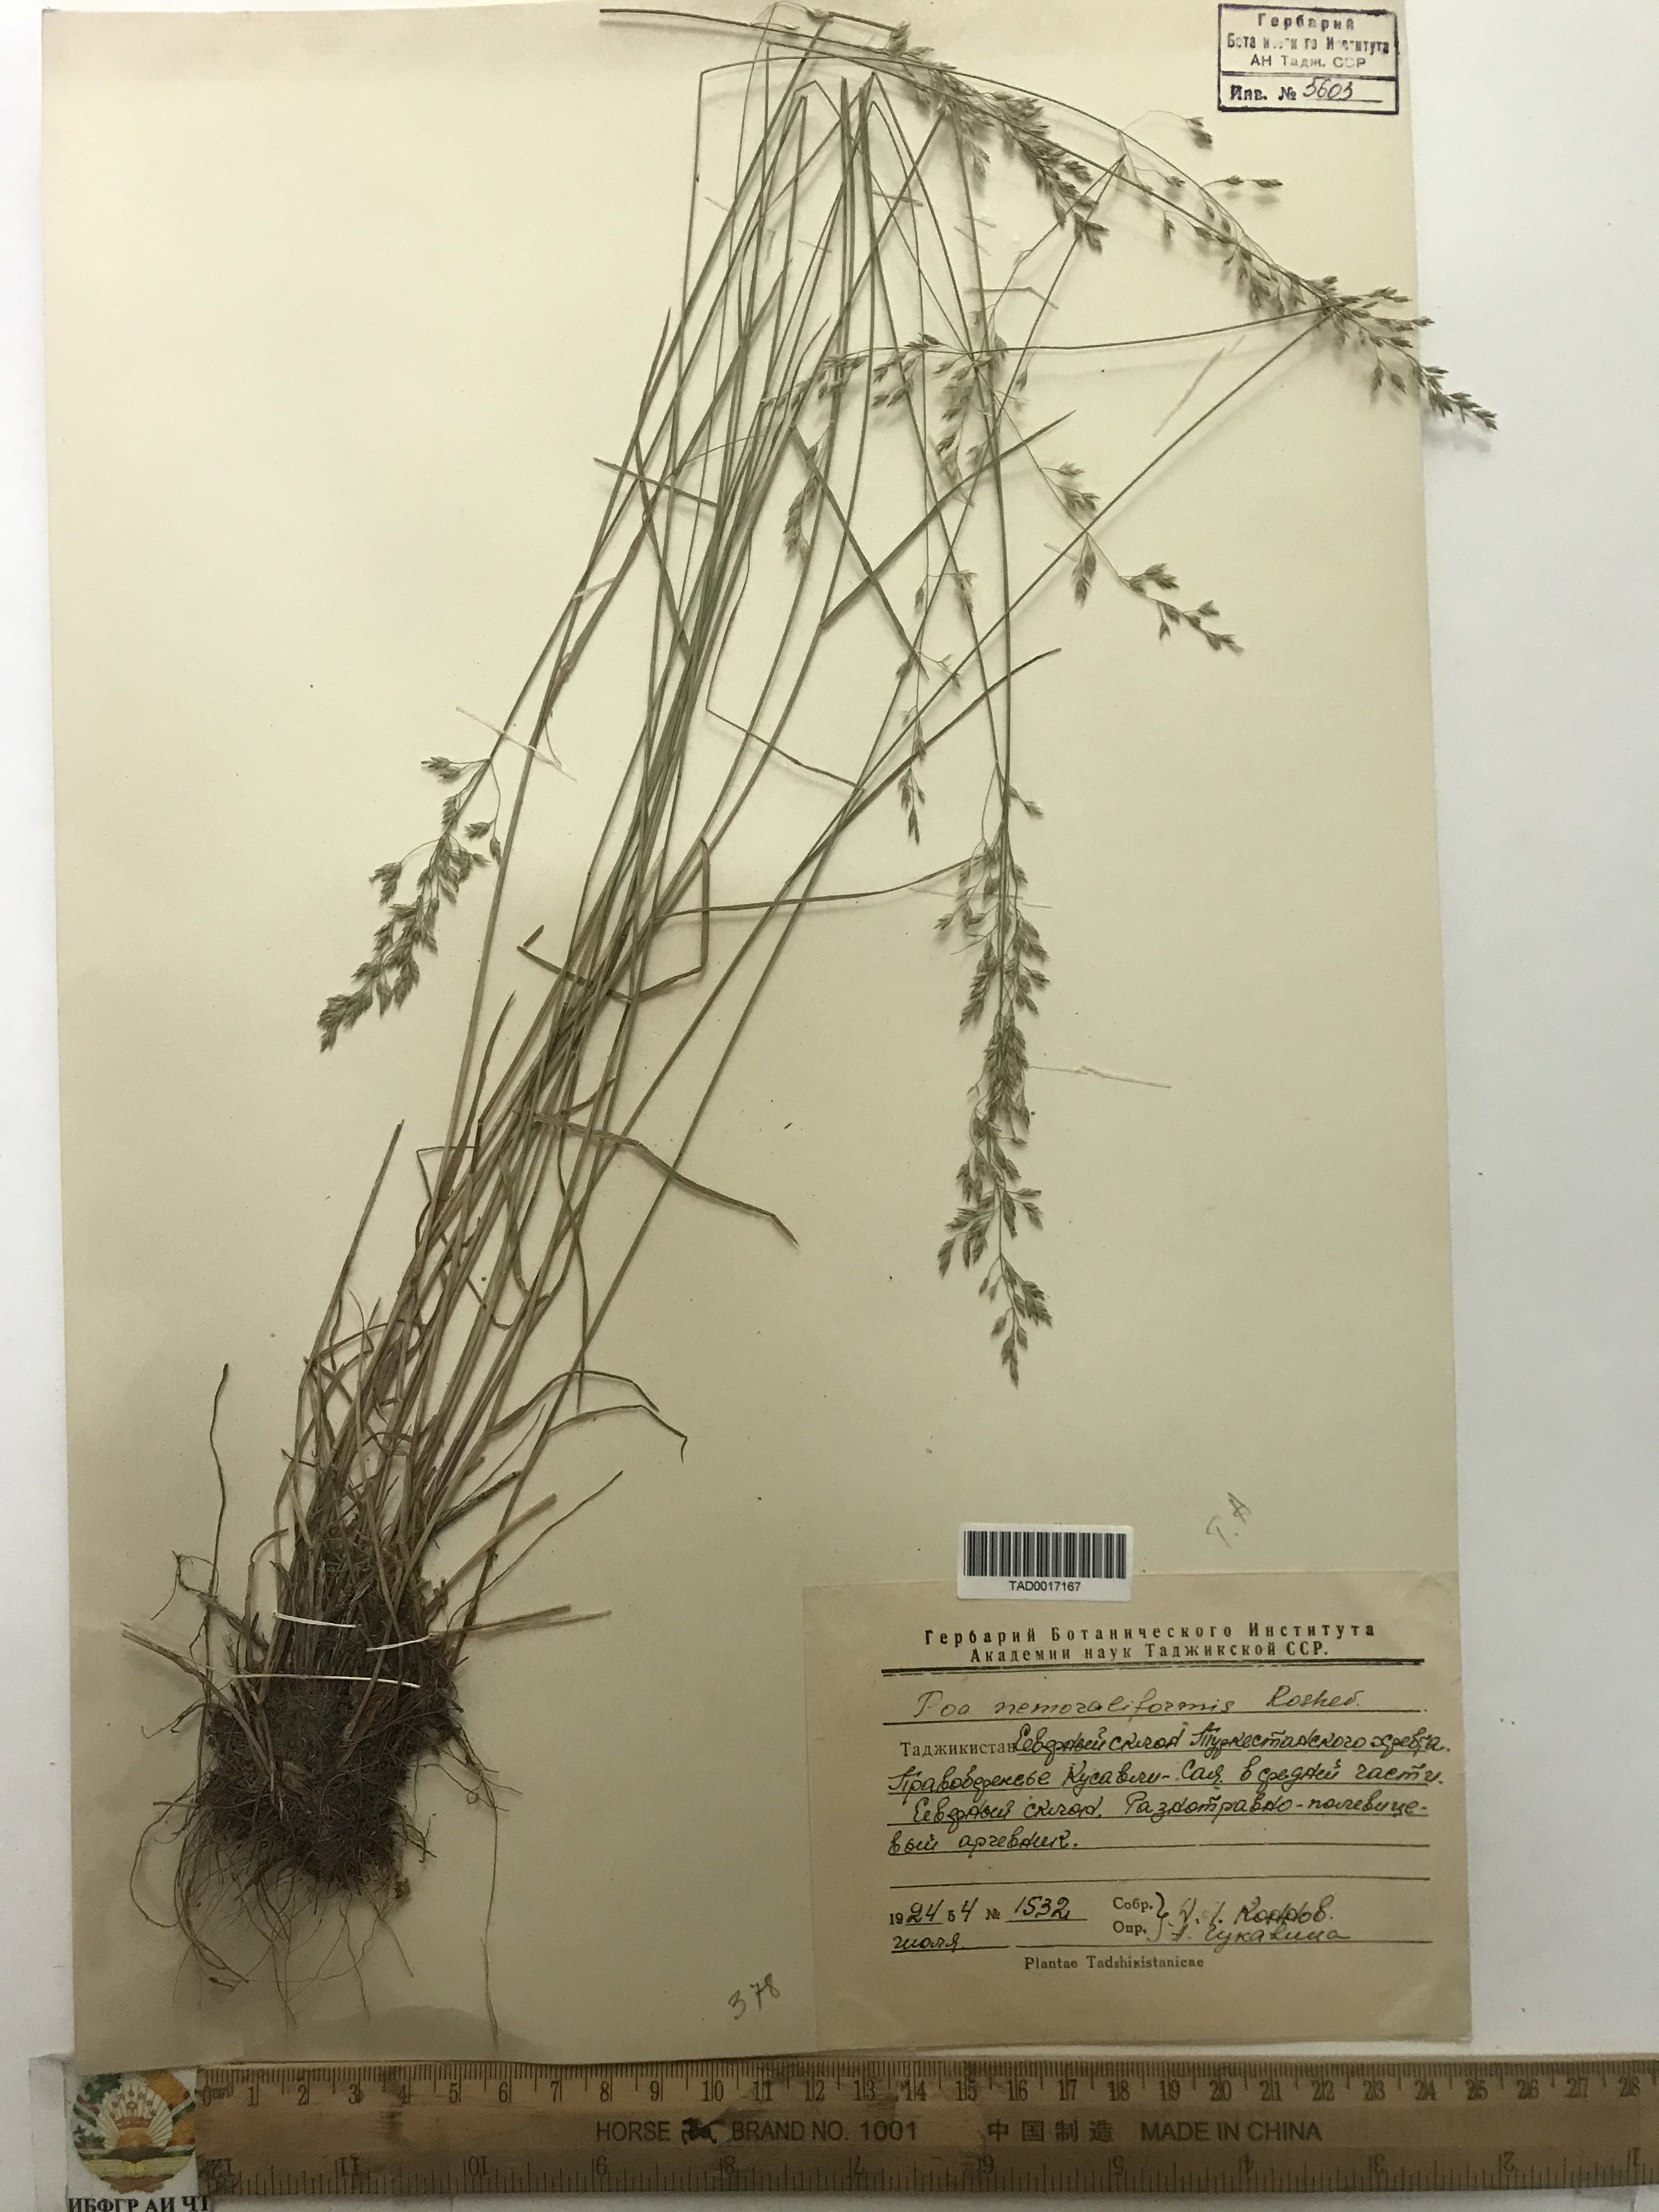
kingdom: Plantae
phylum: Tracheophyta
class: Liliopsida
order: Poales
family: Poaceae
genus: Poa
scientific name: Poa urssulensis
